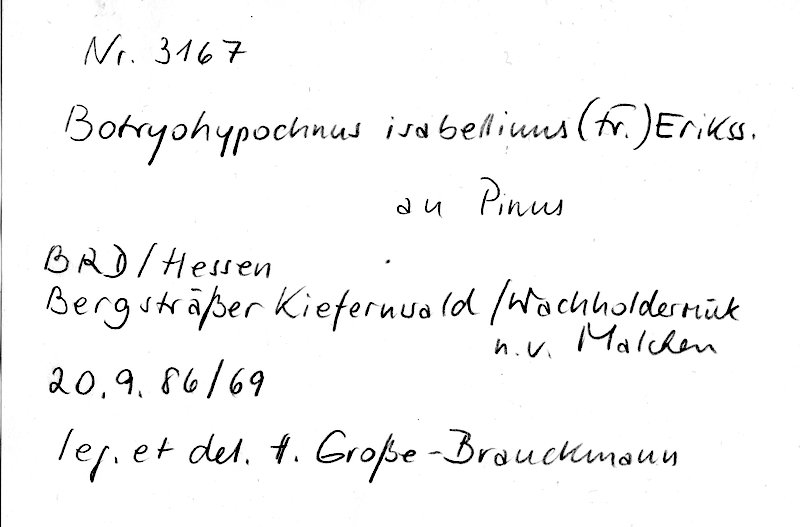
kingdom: Fungi
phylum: Basidiomycota
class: Agaricomycetes
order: Cantharellales
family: Botryobasidiaceae
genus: Botryobasidium
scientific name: Botryobasidium isabellinum
